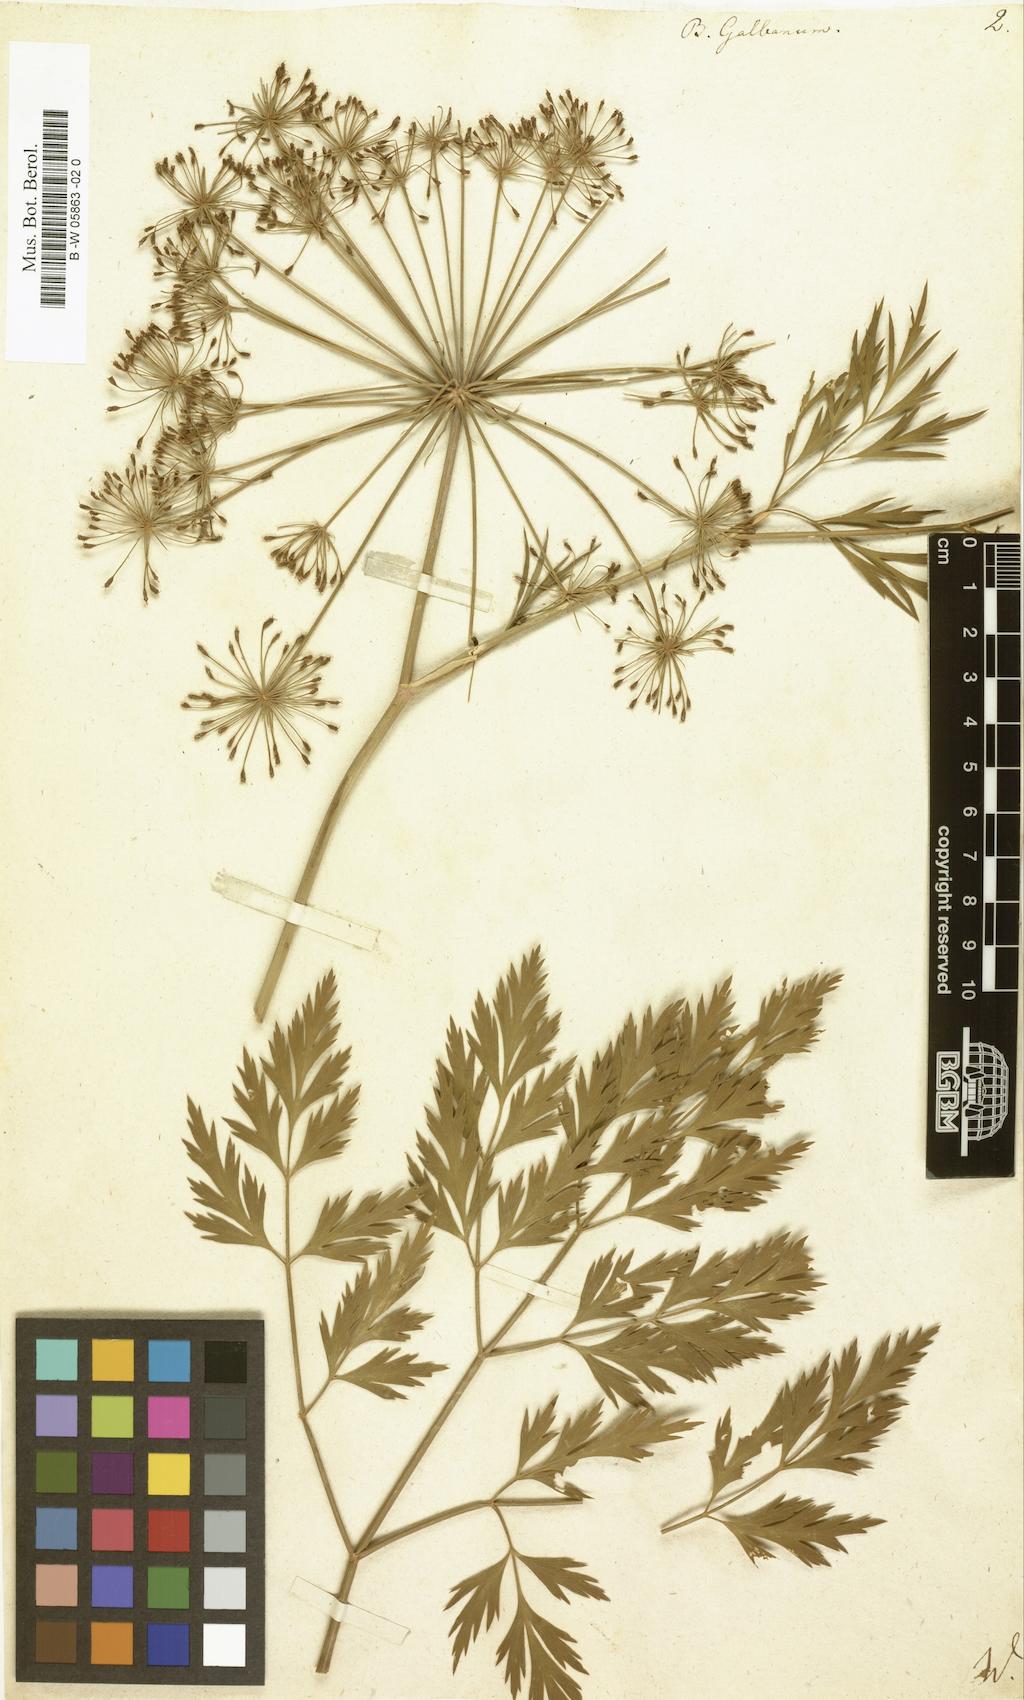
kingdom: Plantae
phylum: Tracheophyta
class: Magnoliopsida
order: Apiales
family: Apiaceae
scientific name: Apiaceae
